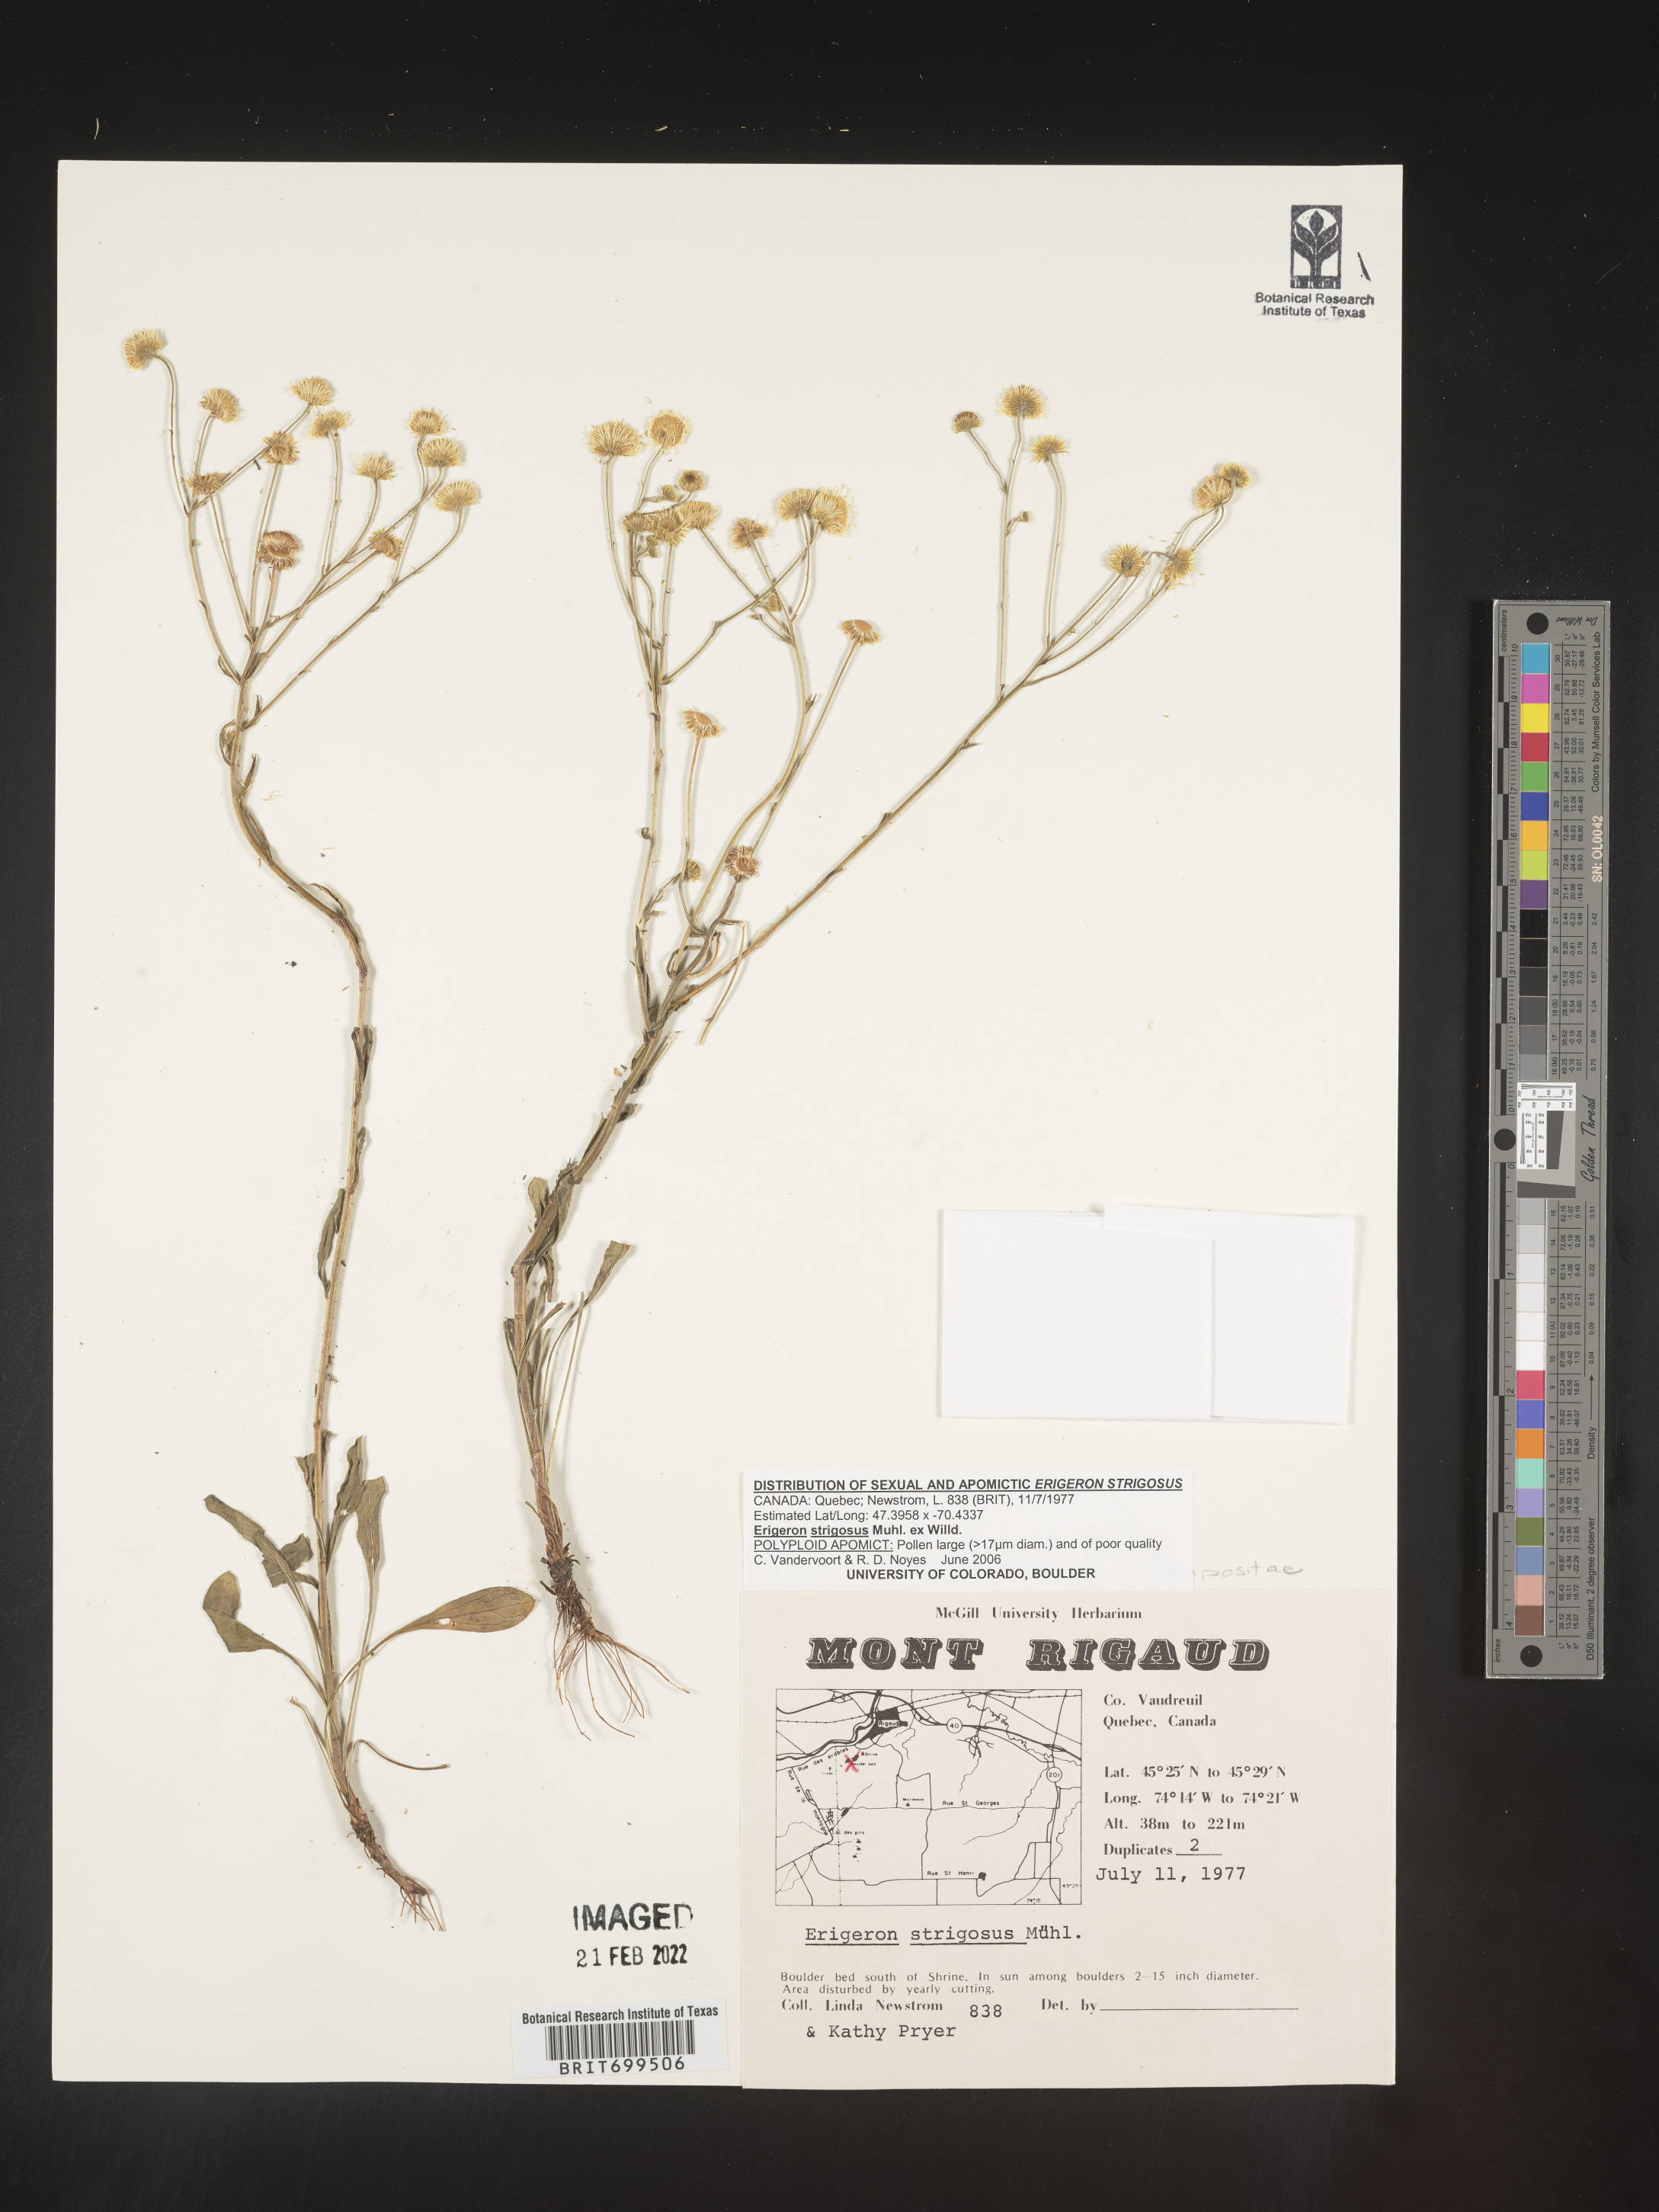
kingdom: Plantae
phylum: Tracheophyta
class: Magnoliopsida
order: Asterales
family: Asteraceae
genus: Erigeron
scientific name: Erigeron strigosus
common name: Common eastern fleabane
